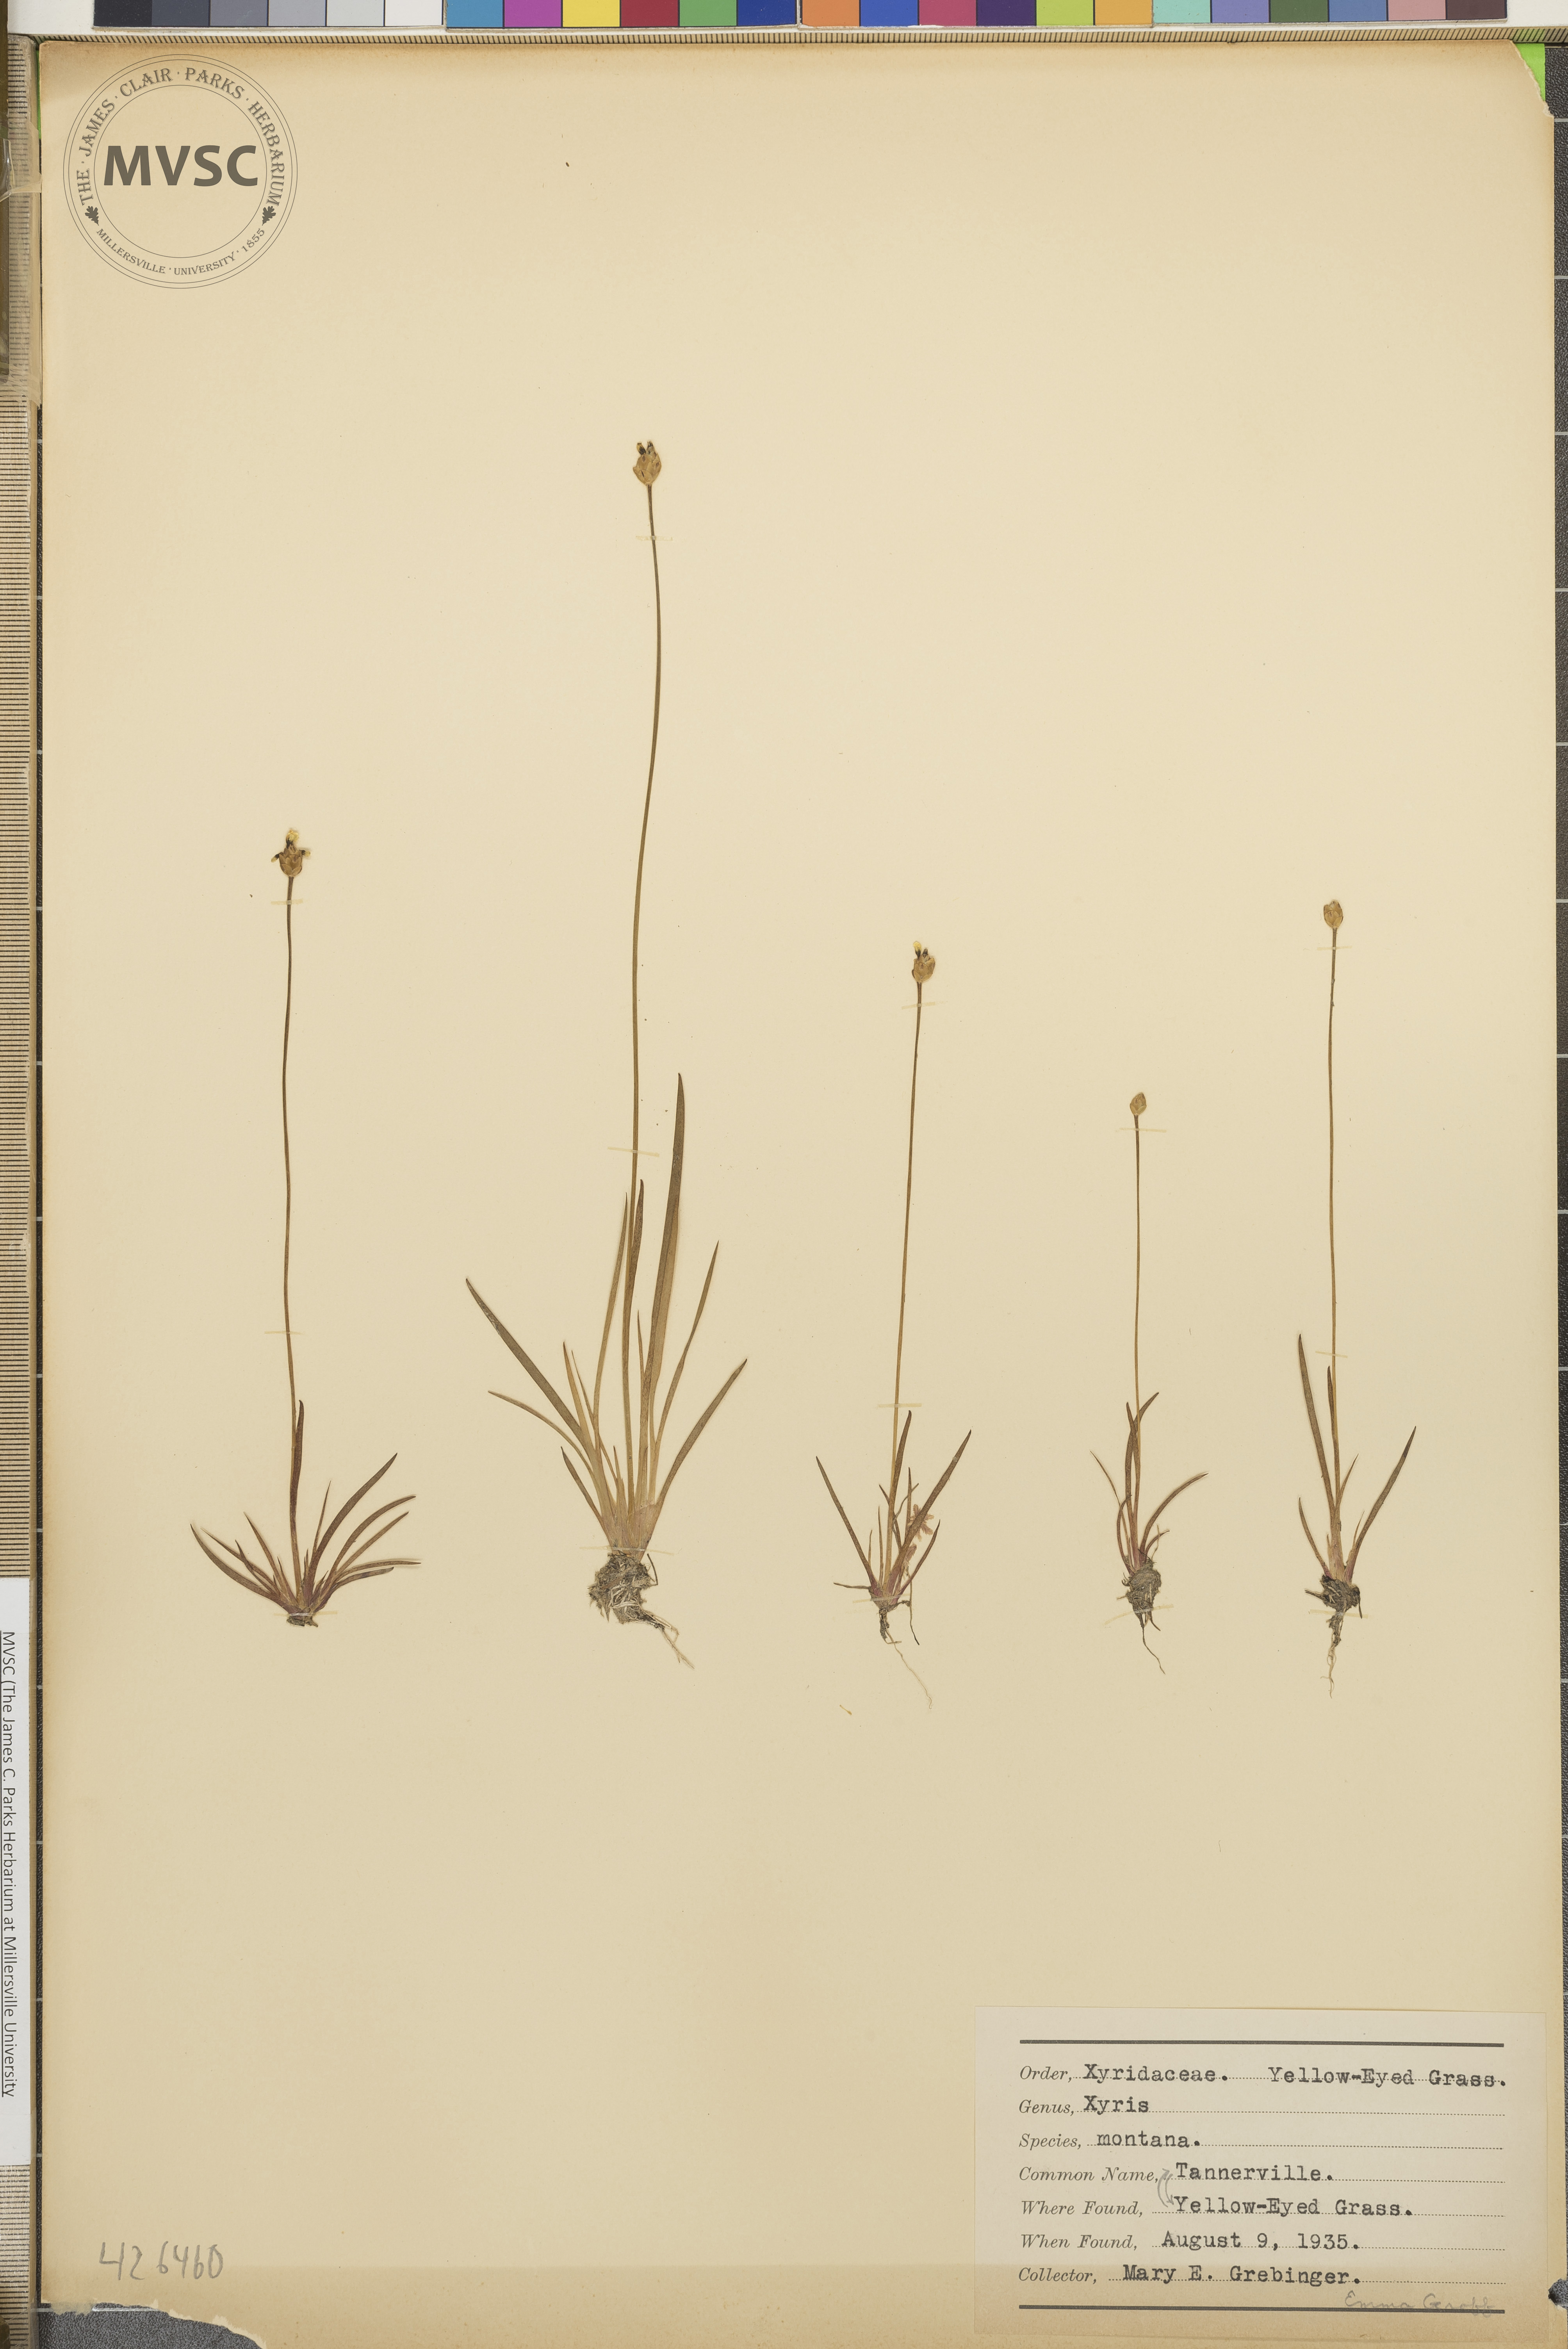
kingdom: Plantae
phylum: Tracheophyta
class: Liliopsida
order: Poales
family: Xyridaceae
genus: Xyris
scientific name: Xyris montana
